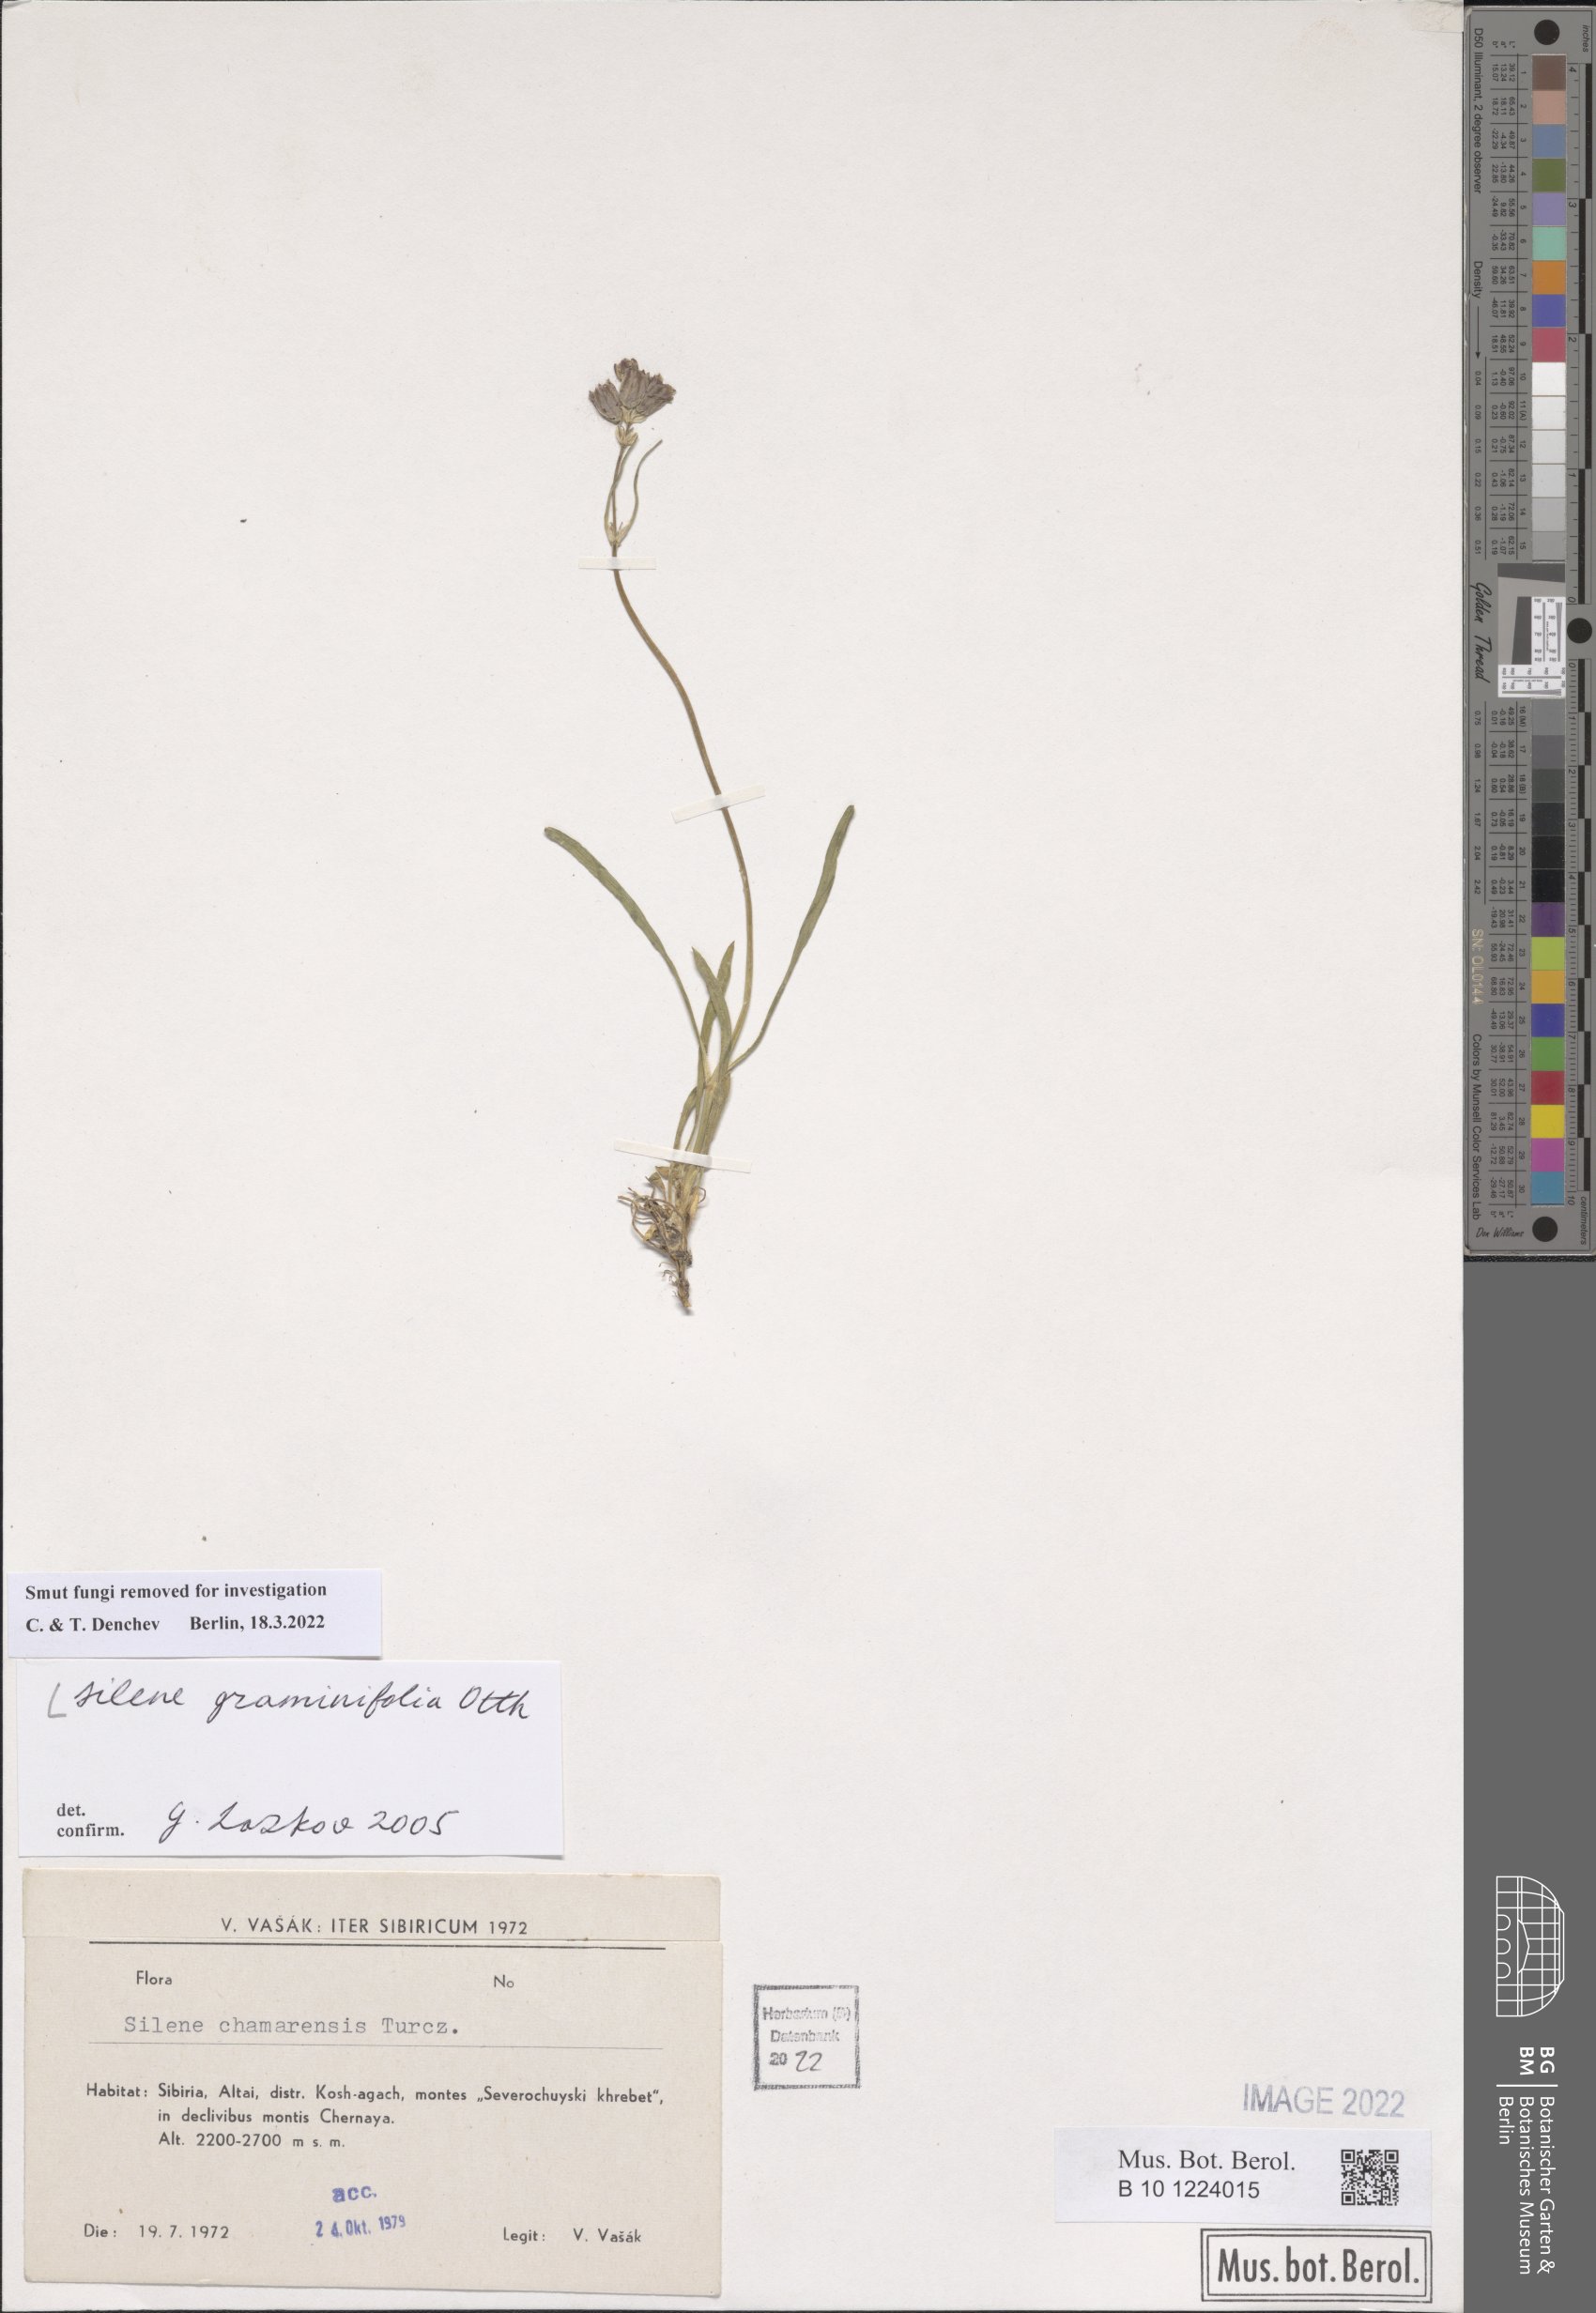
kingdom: Plantae
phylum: Tracheophyta
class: Magnoliopsida
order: Caryophyllales
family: Caryophyllaceae
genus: Silene
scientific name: Silene graminifolia
